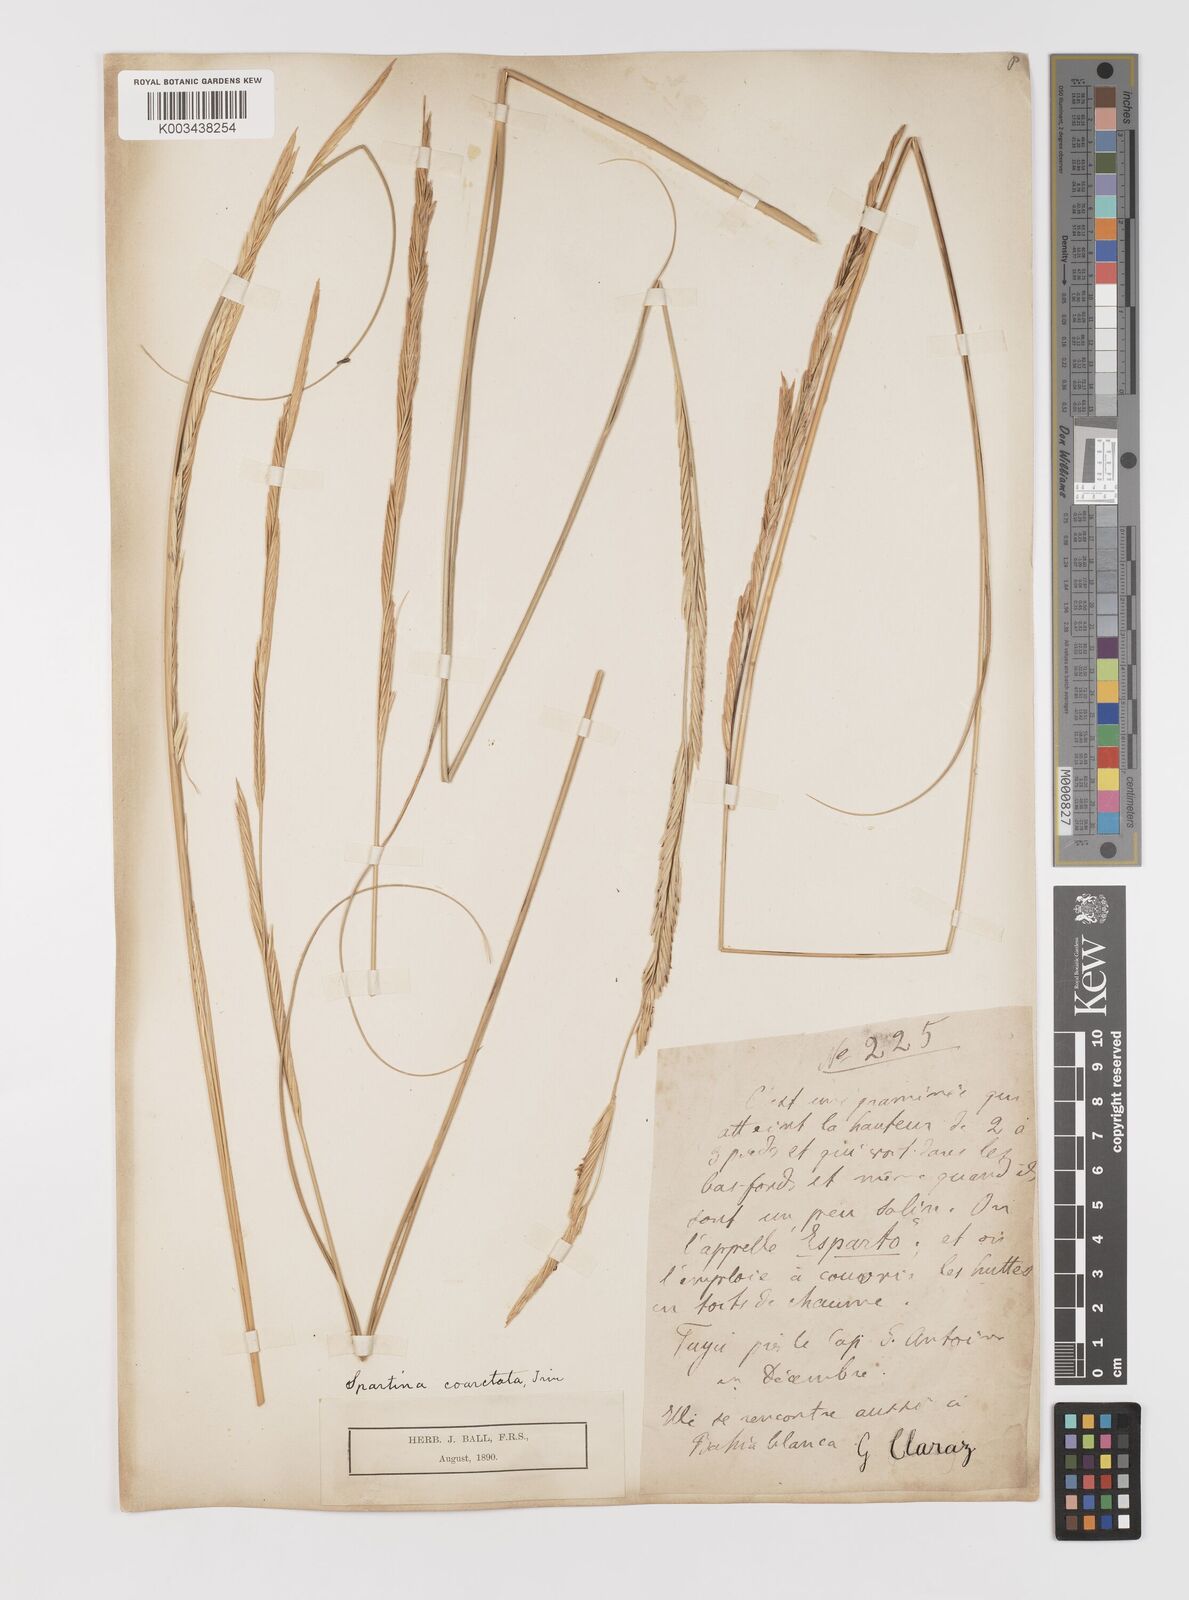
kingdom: Plantae
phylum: Tracheophyta
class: Liliopsida
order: Poales
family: Poaceae
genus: Sporobolus
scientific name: Sporobolus montevidensis
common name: Montevideo dropseed
